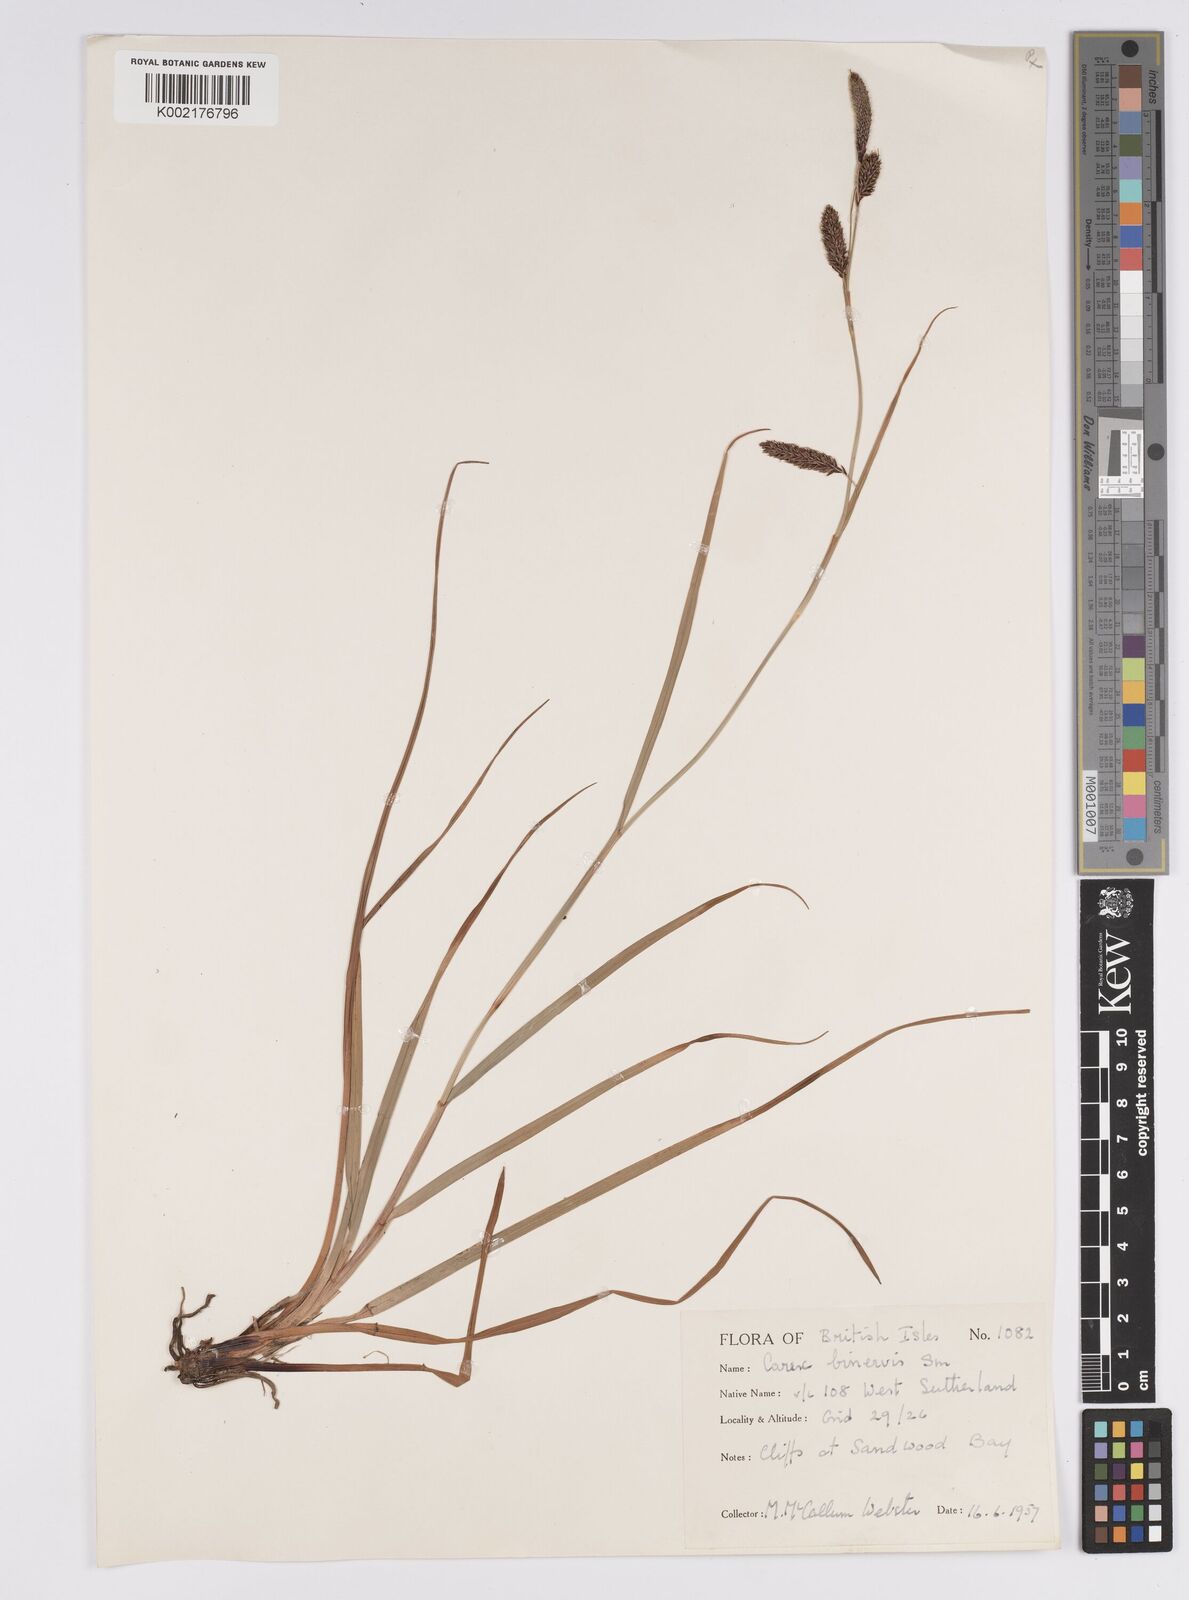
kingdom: Plantae
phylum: Tracheophyta
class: Liliopsida
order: Poales
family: Cyperaceae
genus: Carex
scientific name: Carex binervis
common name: Green-ribbed sedge
